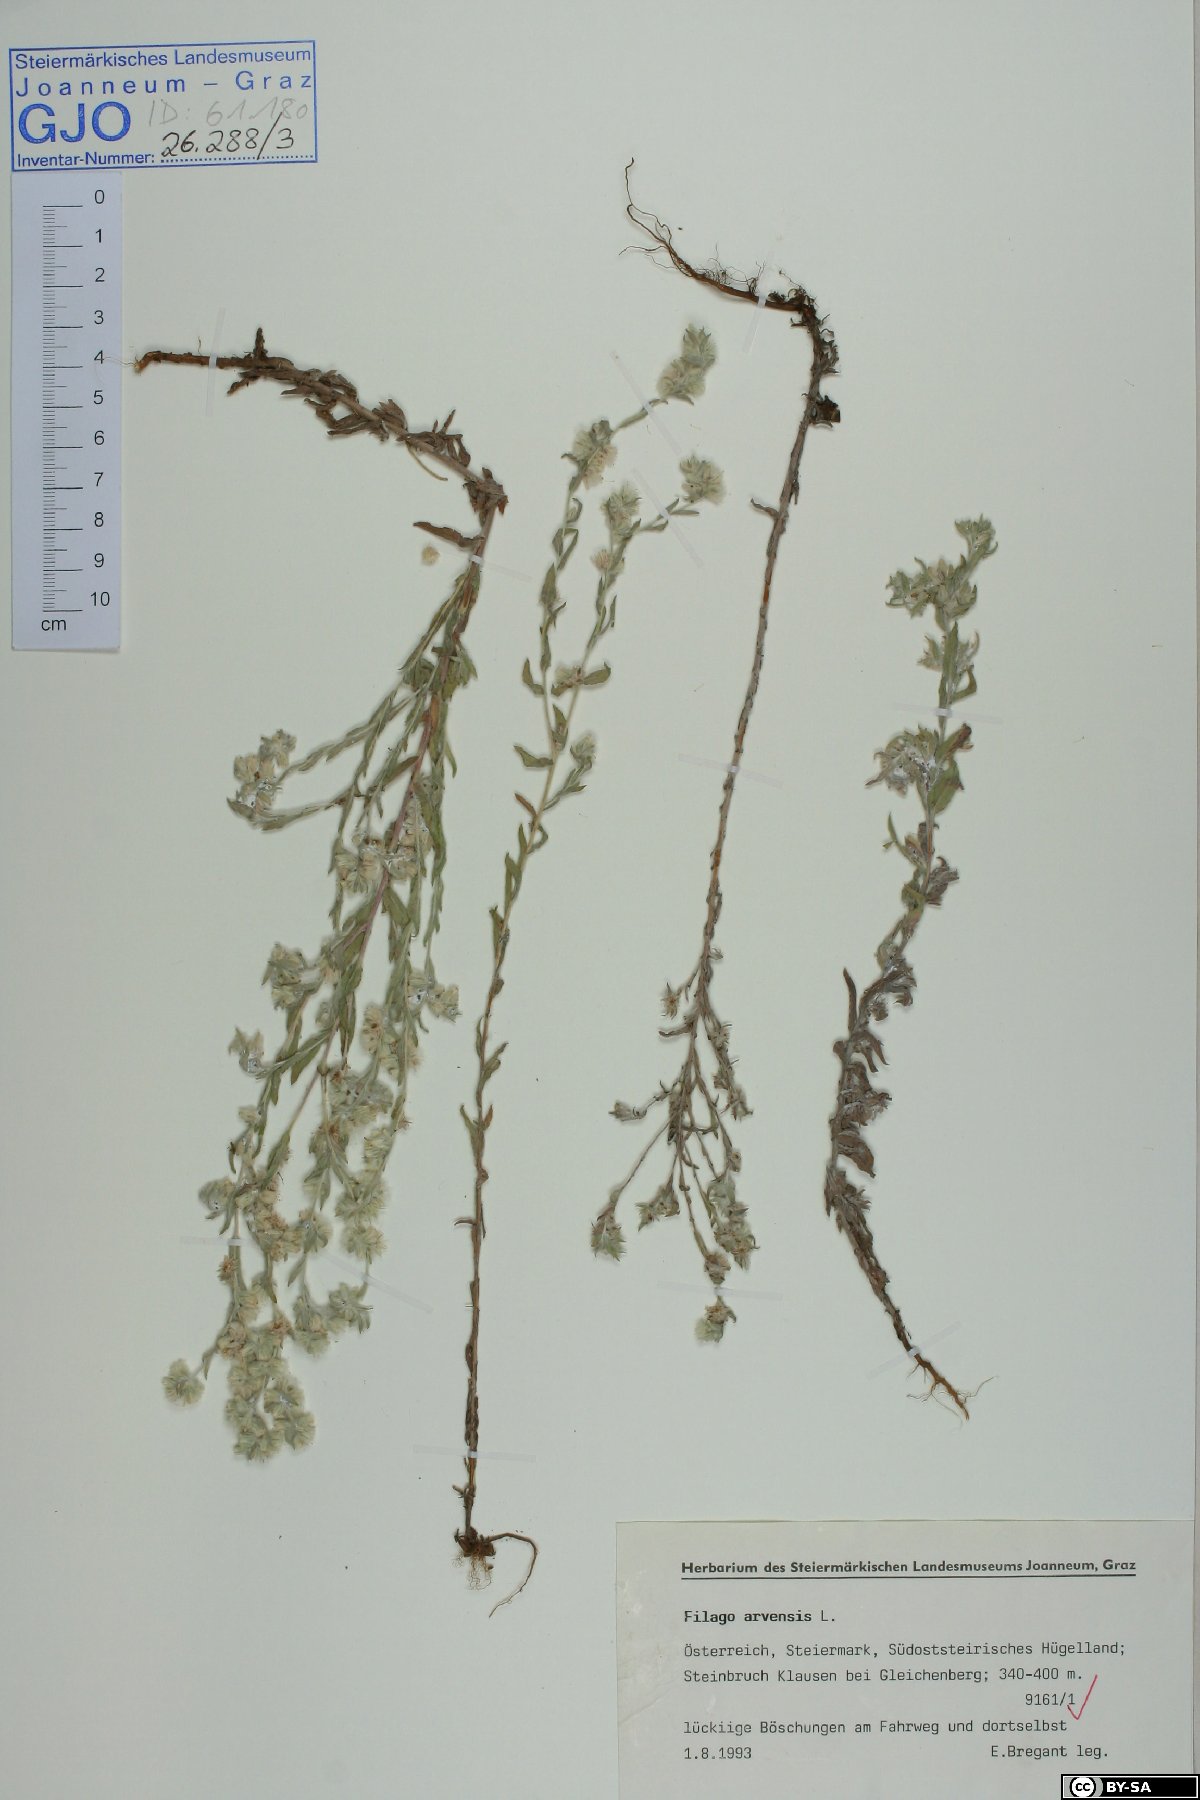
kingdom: Plantae
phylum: Tracheophyta
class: Magnoliopsida
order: Asterales
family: Asteraceae
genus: Filago
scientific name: Filago arvensis
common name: Field cudweed
